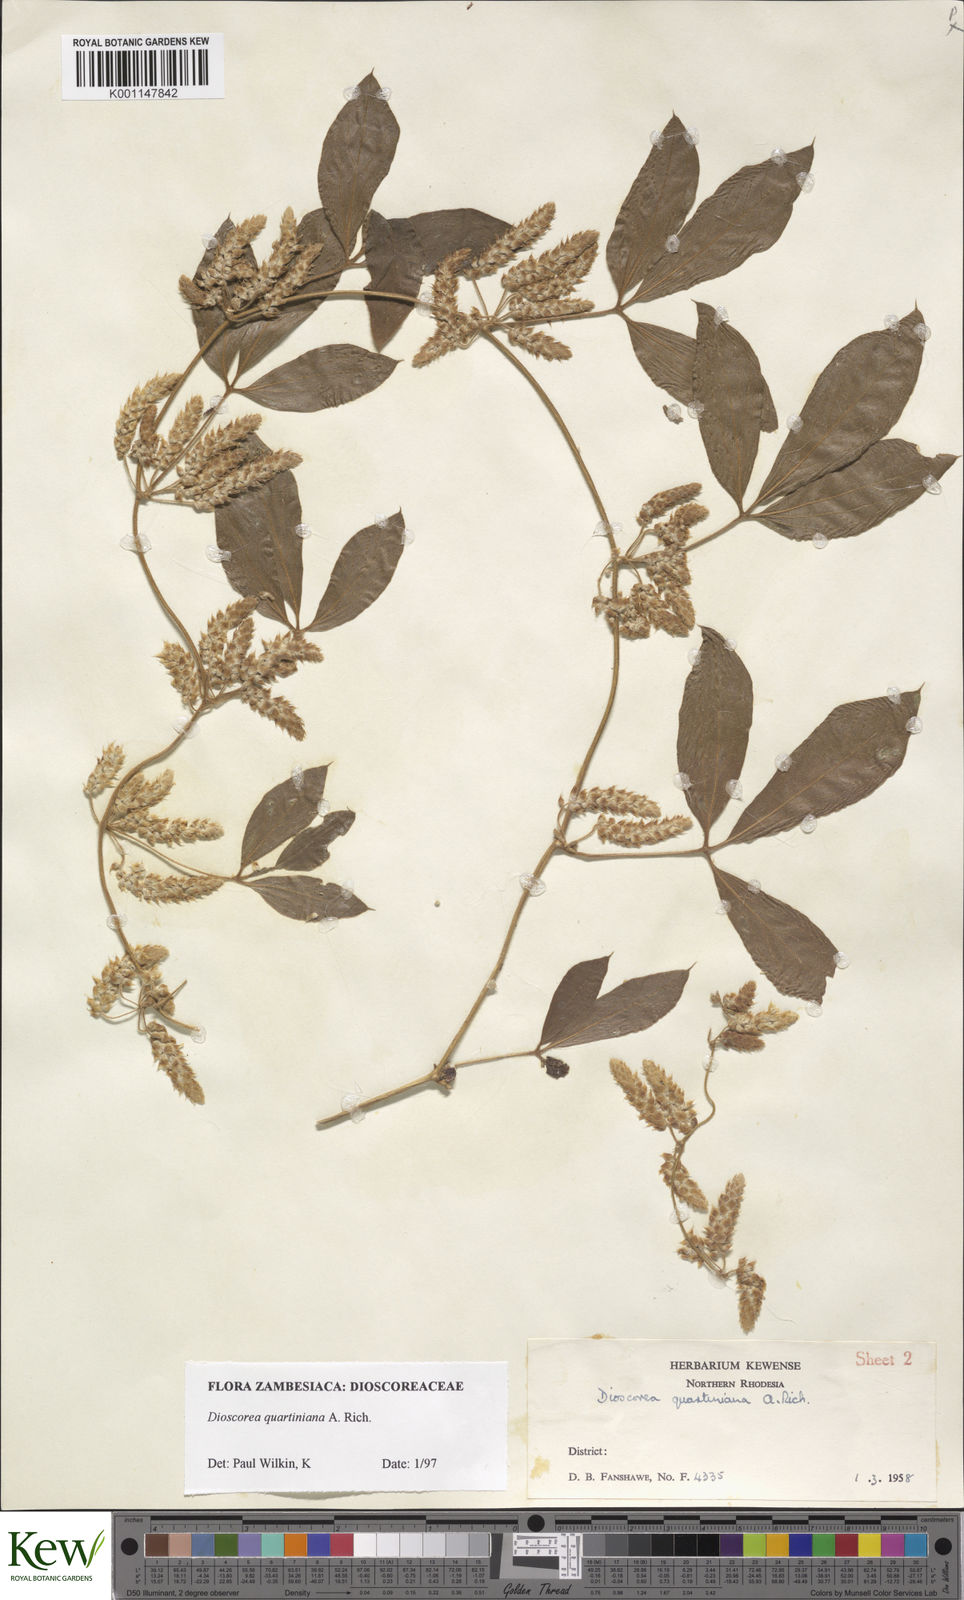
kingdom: Plantae
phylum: Tracheophyta
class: Liliopsida
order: Dioscoreales
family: Dioscoreaceae
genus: Dioscorea
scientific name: Dioscorea quartiniana
